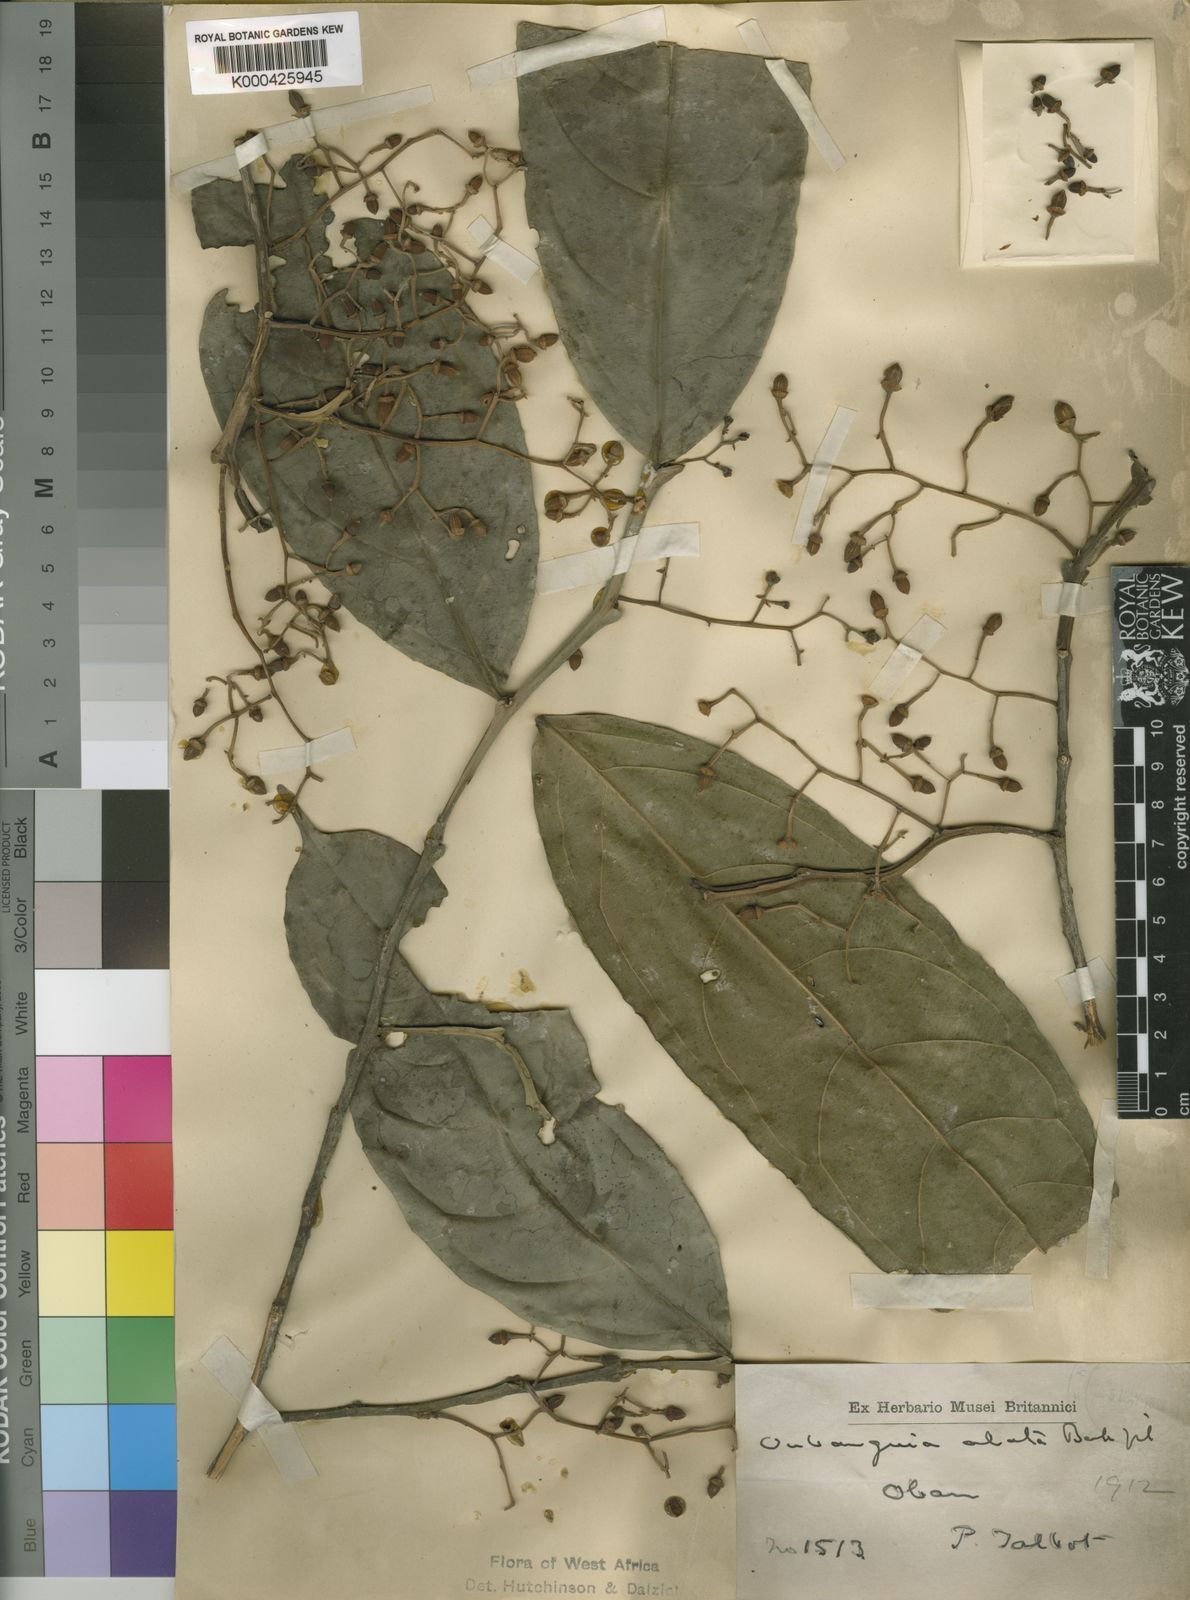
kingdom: Plantae
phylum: Tracheophyta
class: Magnoliopsida
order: Ericales
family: Lecythidaceae
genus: Oubanguia
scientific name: Oubanguia alata
